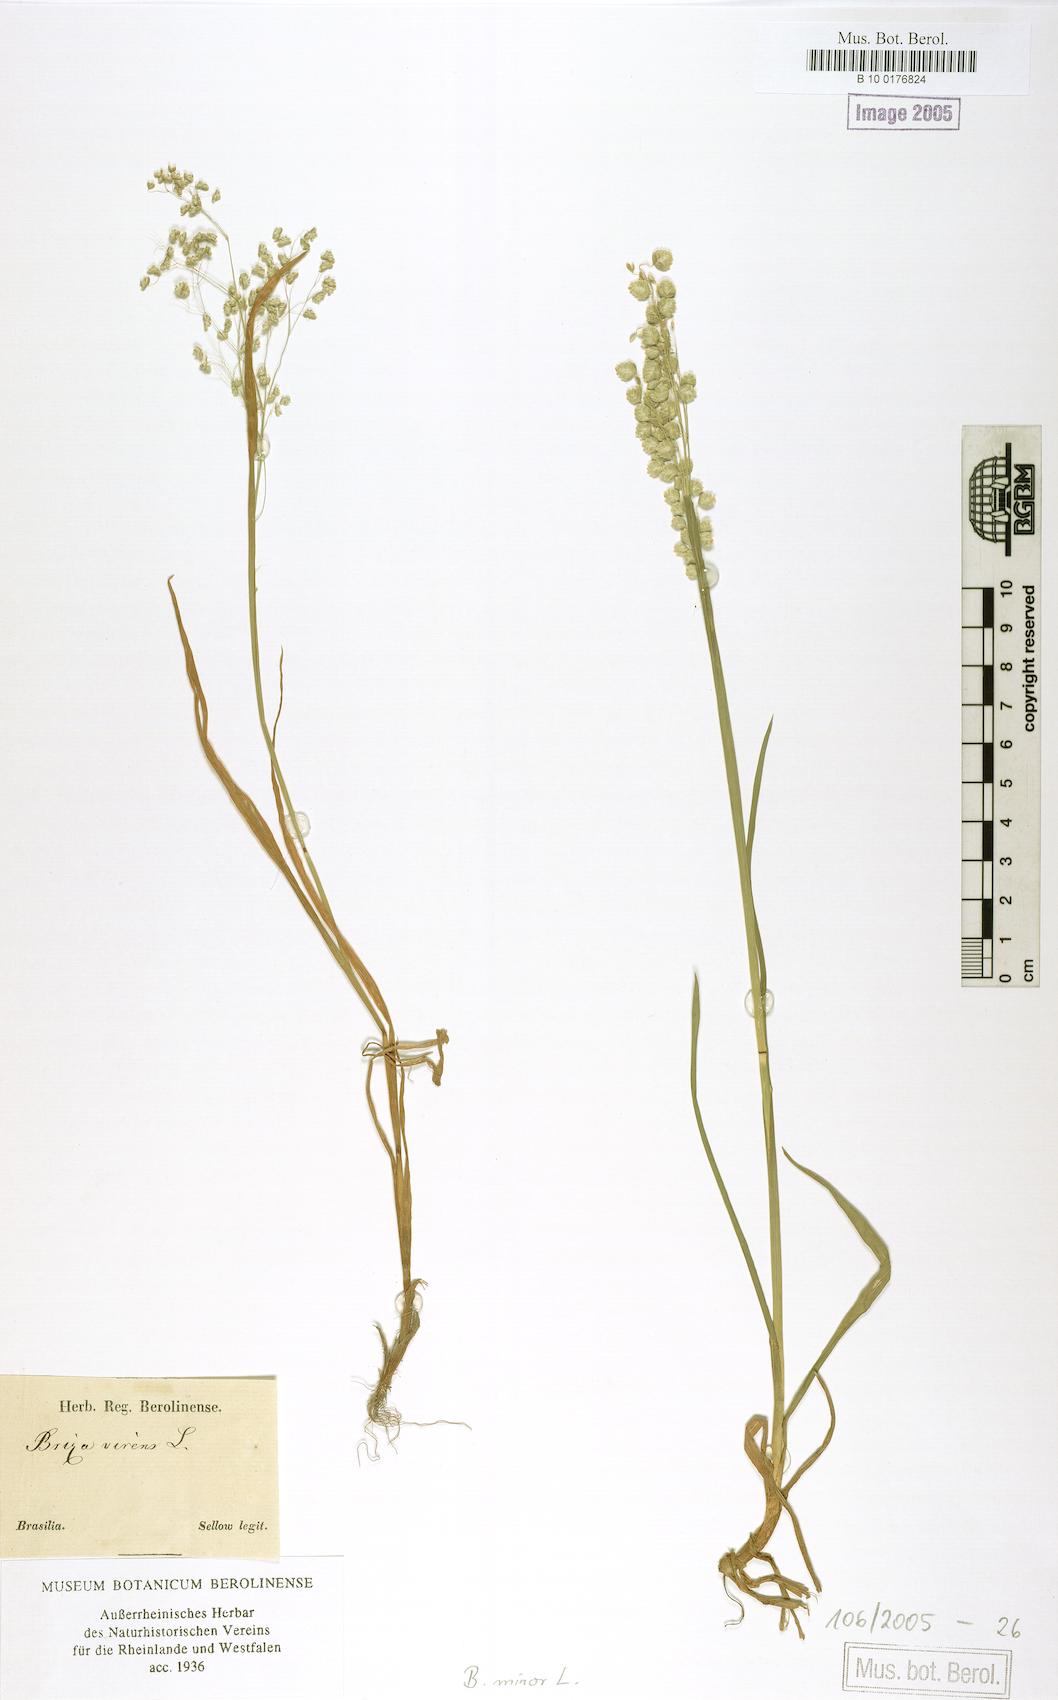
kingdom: Plantae
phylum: Tracheophyta
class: Liliopsida
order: Poales
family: Poaceae
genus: Briza
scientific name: Briza minor
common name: Lesser quaking-grass
